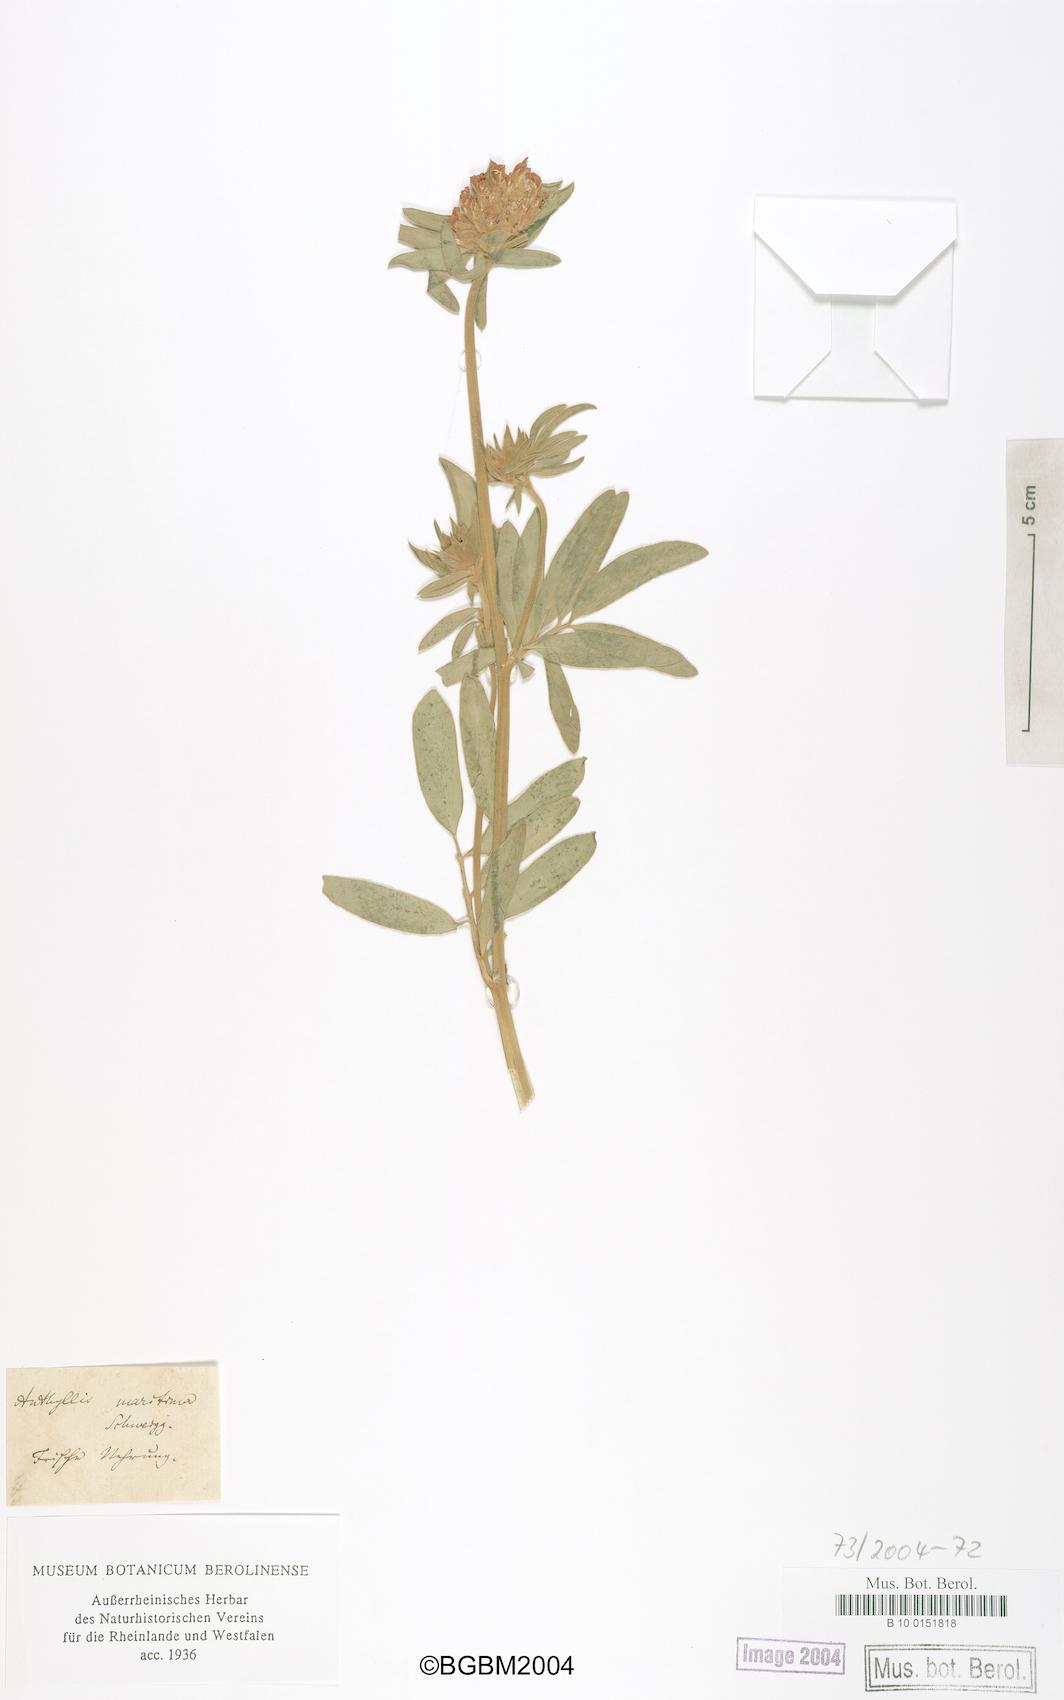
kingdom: Plantae
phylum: Tracheophyta
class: Magnoliopsida
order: Fabales
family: Fabaceae
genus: Anthyllis
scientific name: Anthyllis vulneraria
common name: Kidney vetch
